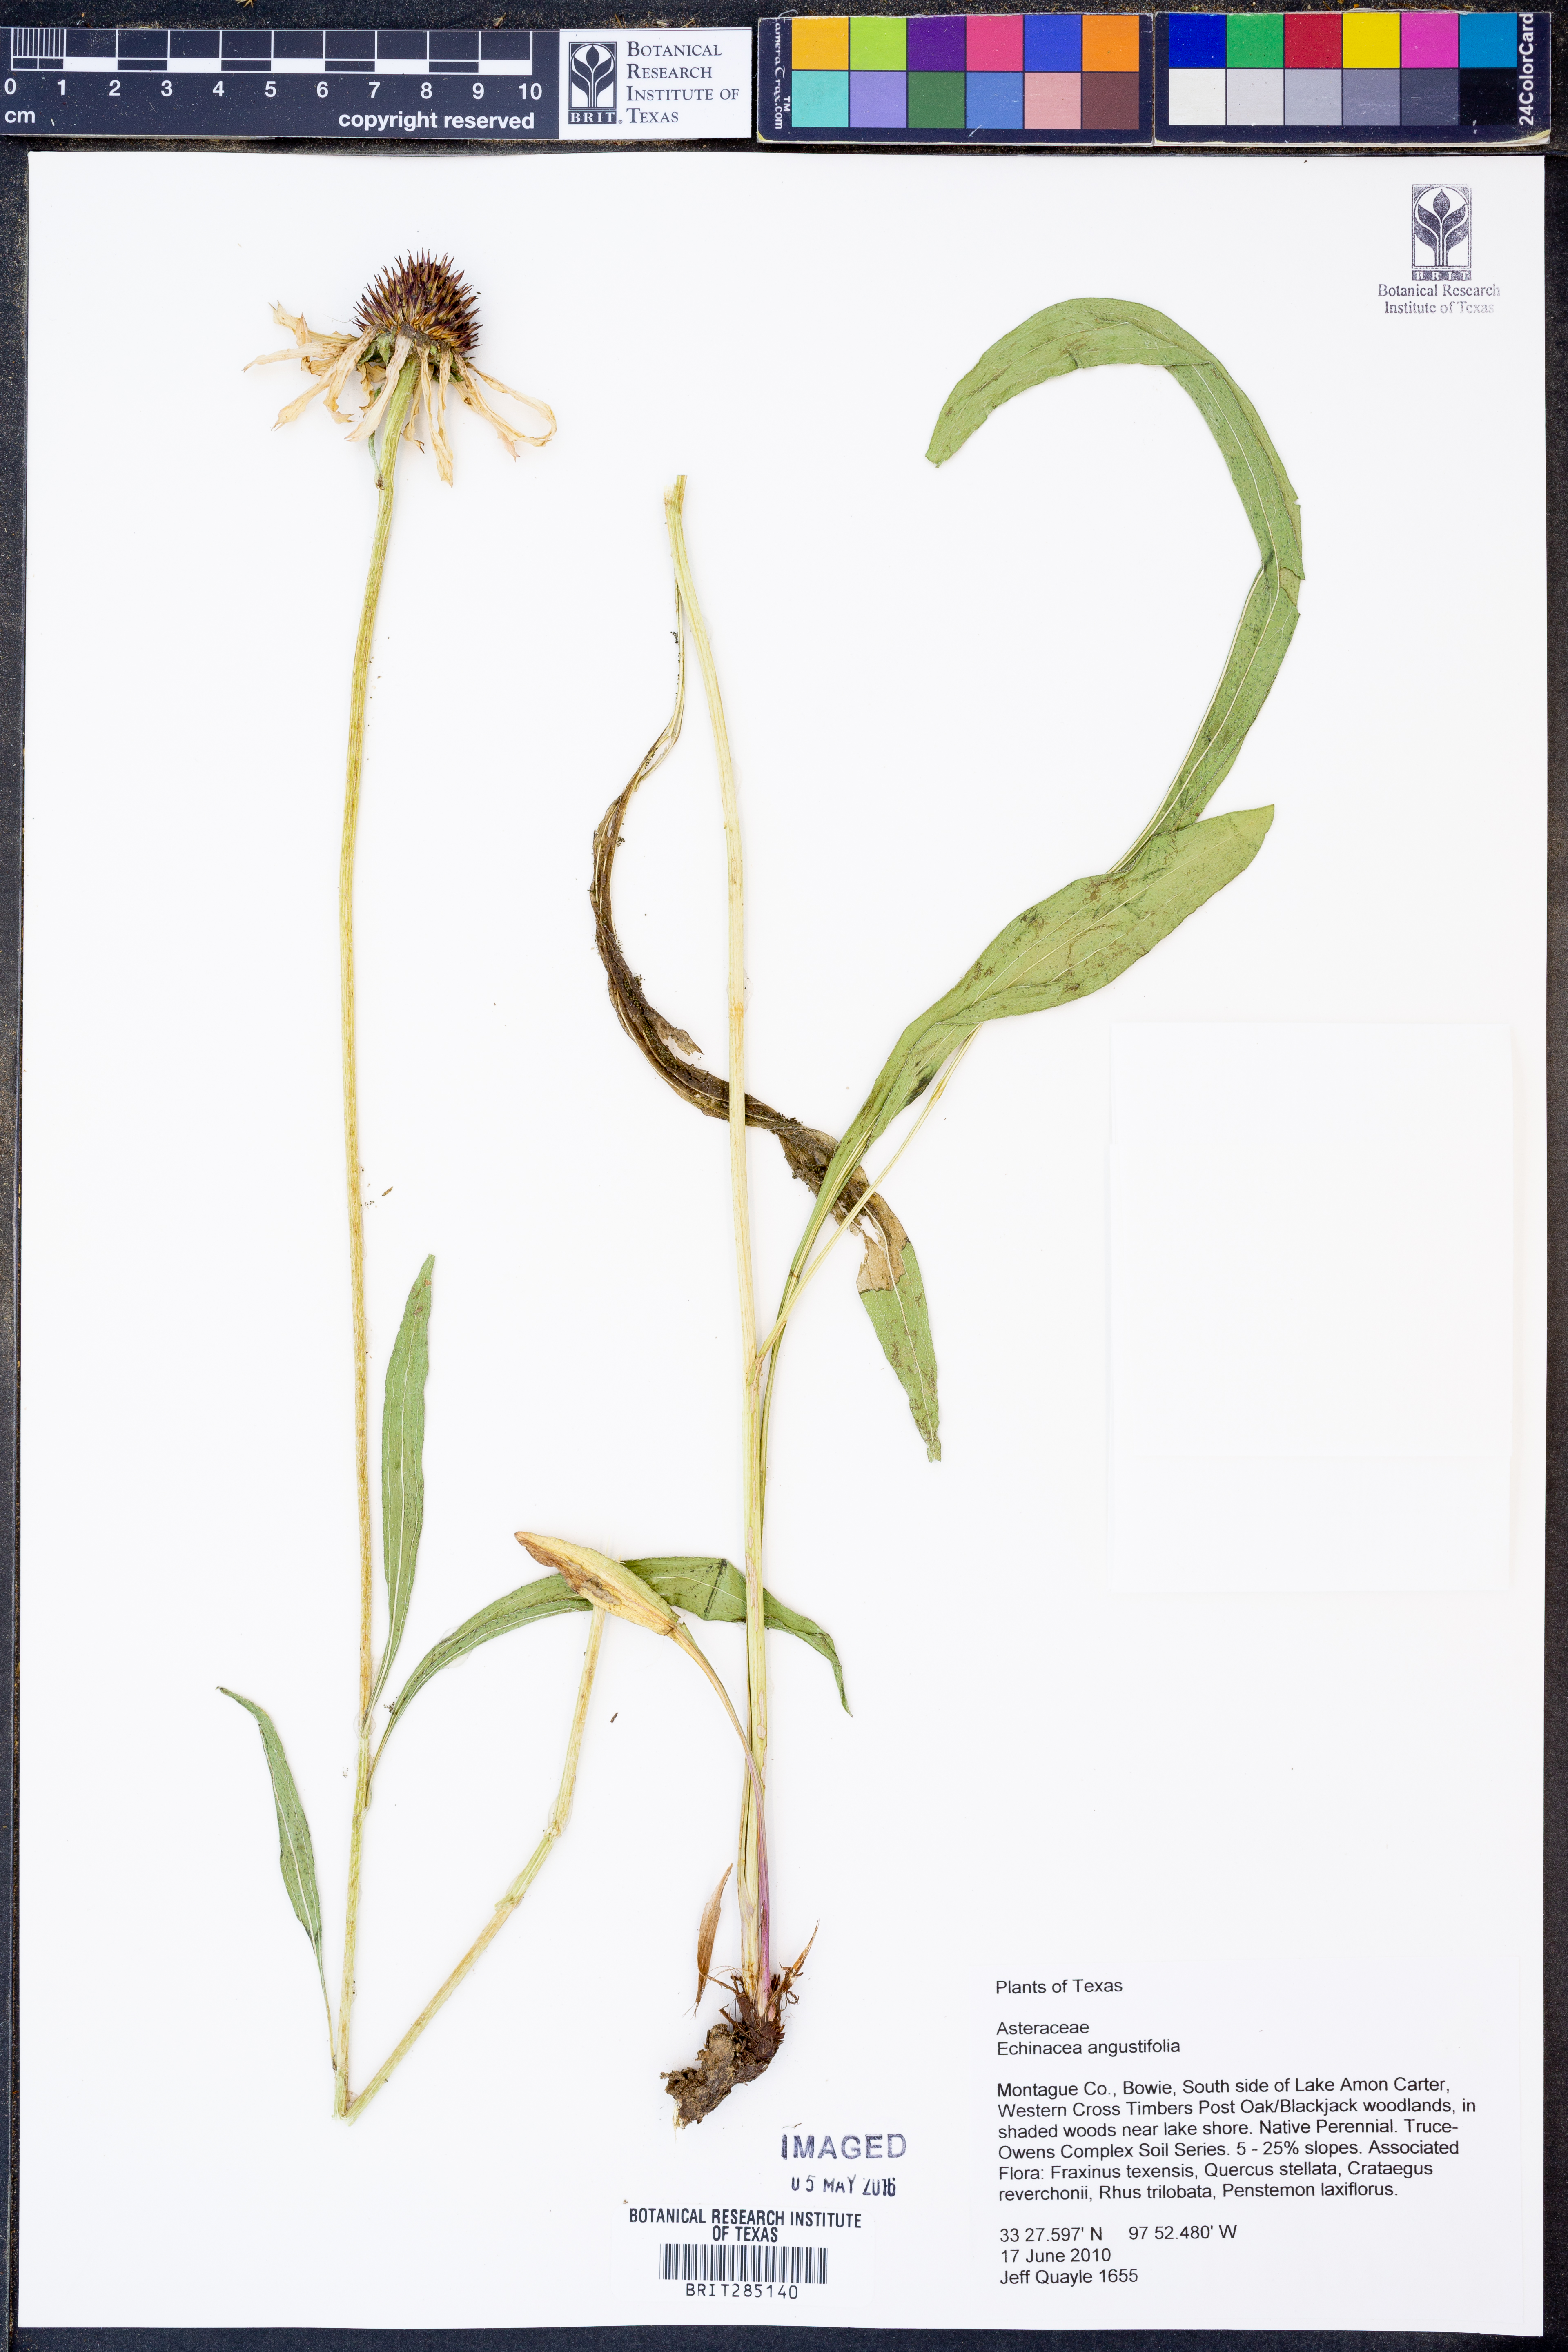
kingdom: Plantae
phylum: Tracheophyta
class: Magnoliopsida
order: Asterales
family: Asteraceae
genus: Echinacea
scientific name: Echinacea angustifolia
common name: Black-sampson echinacea
